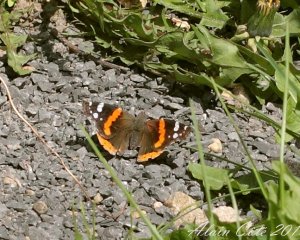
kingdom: Animalia
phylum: Arthropoda
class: Insecta
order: Lepidoptera
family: Nymphalidae
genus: Vanessa
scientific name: Vanessa atalanta
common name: Red Admiral
